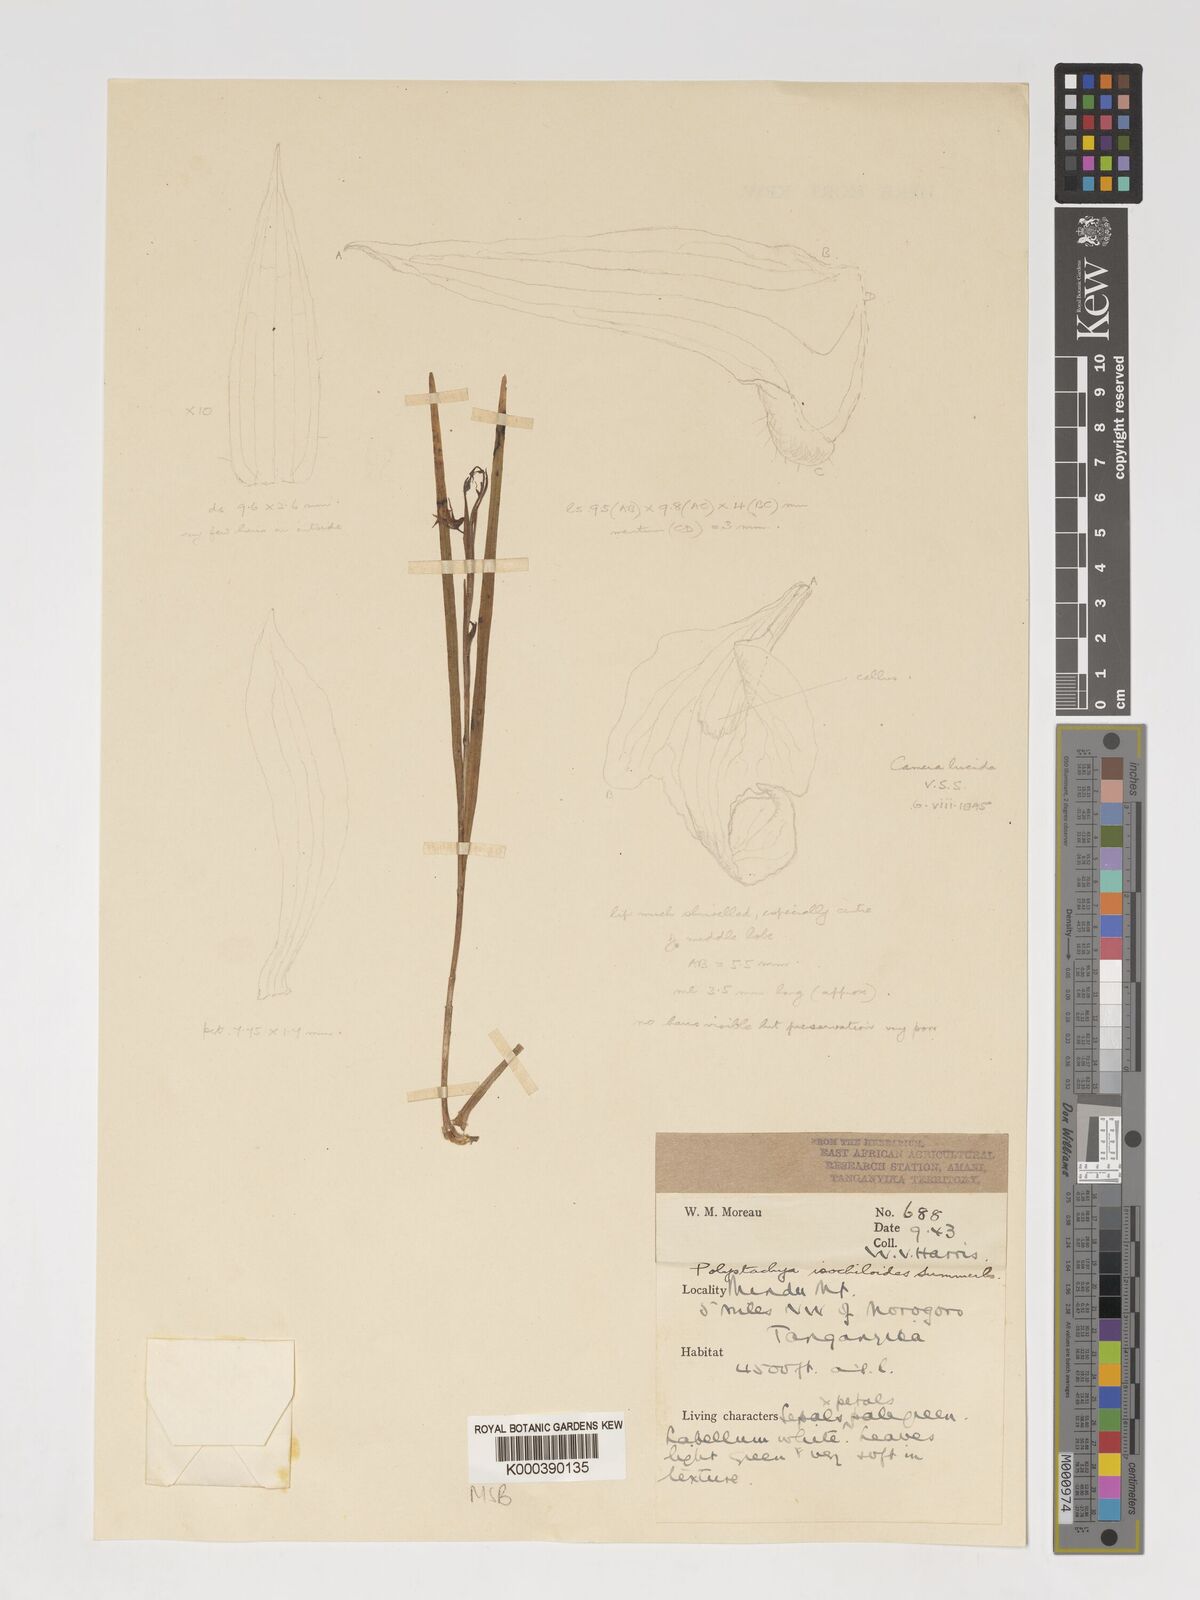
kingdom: Plantae
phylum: Tracheophyta
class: Liliopsida
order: Asparagales
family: Orchidaceae
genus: Polystachya
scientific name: Polystachya isochiloides
